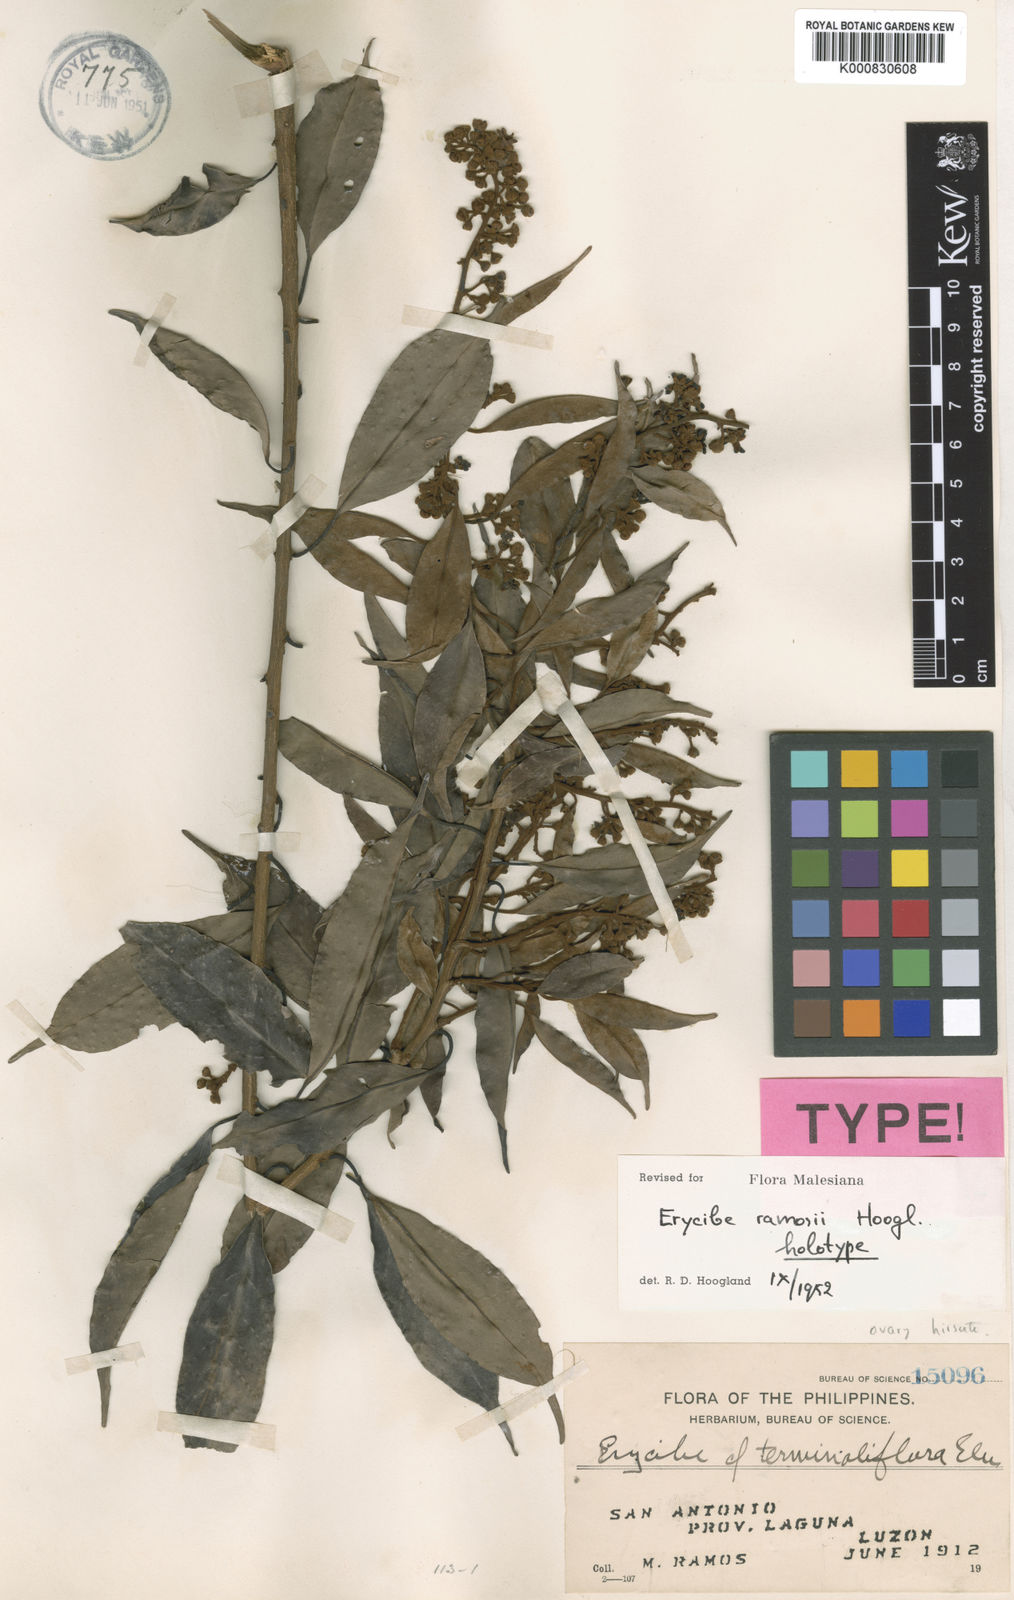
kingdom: Plantae
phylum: Tracheophyta
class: Magnoliopsida
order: Solanales
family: Convolvulaceae
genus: Erycibe
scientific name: Erycibe ramosii
